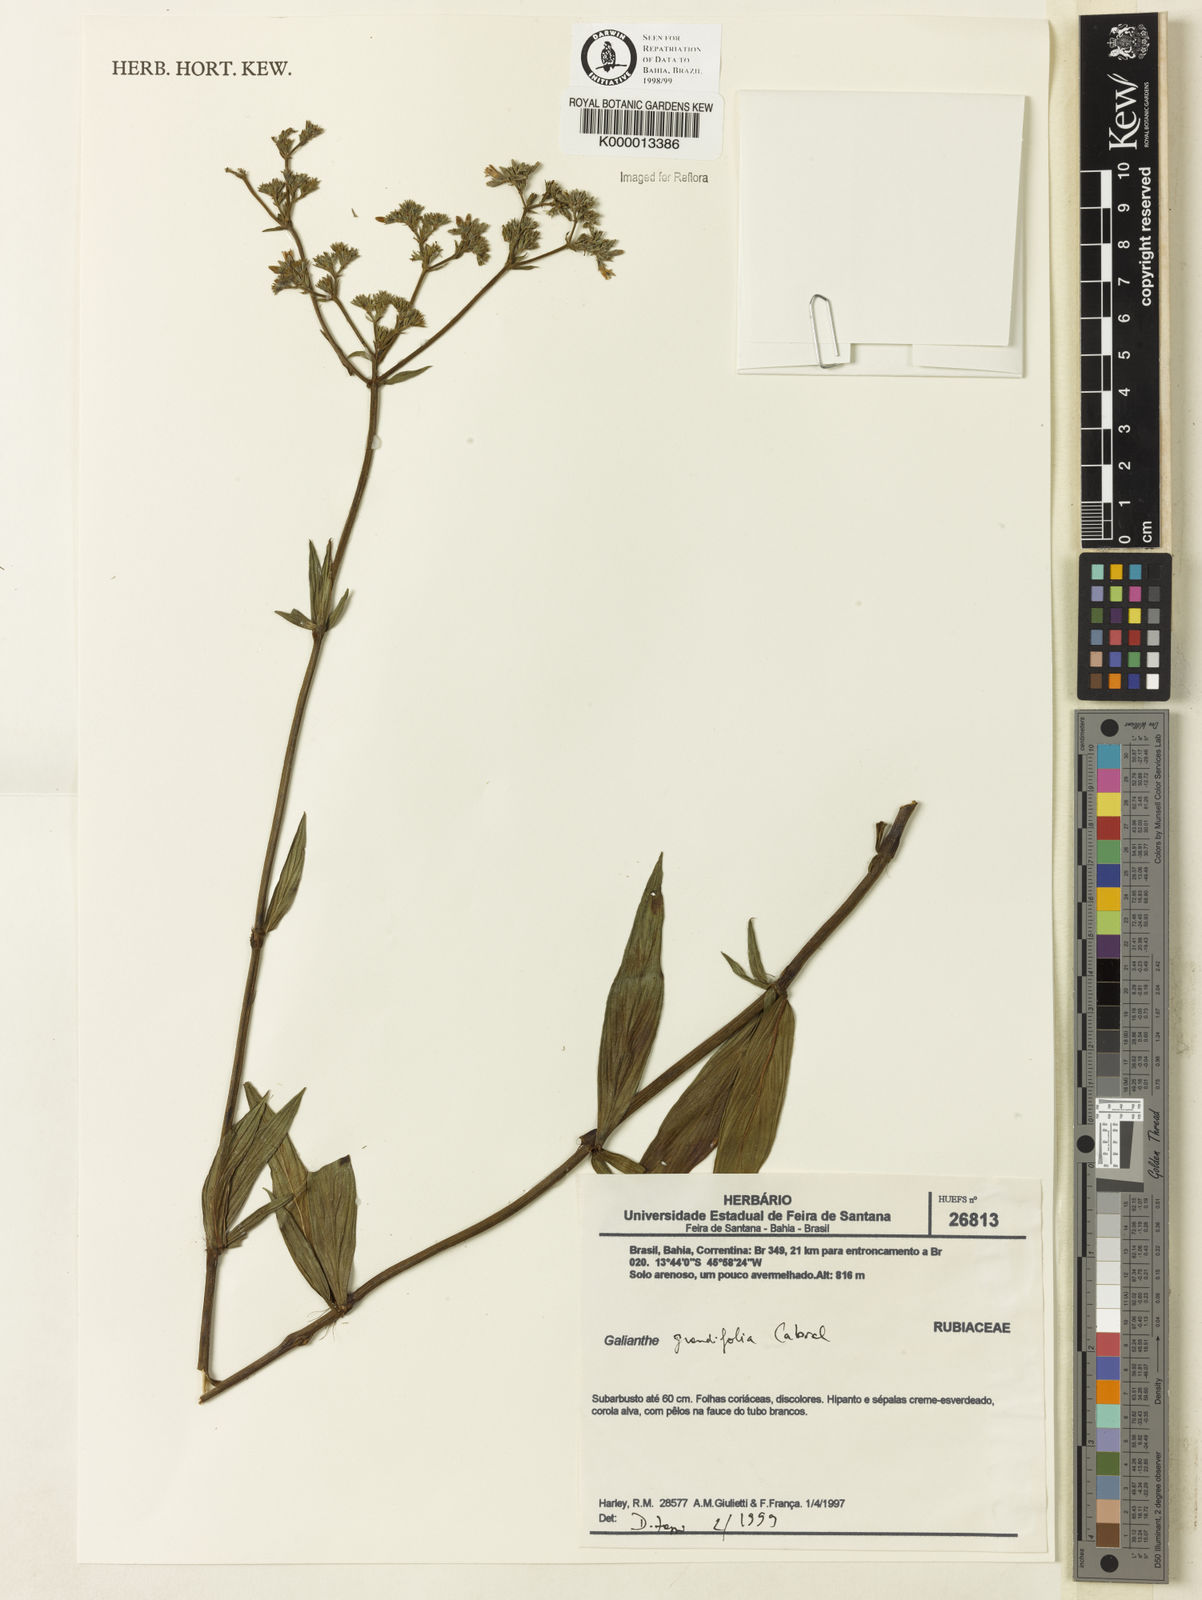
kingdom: Plantae
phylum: Tracheophyta
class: Magnoliopsida
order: Gentianales
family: Rubiaceae
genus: Galianthe
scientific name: Galianthe grandifolia
